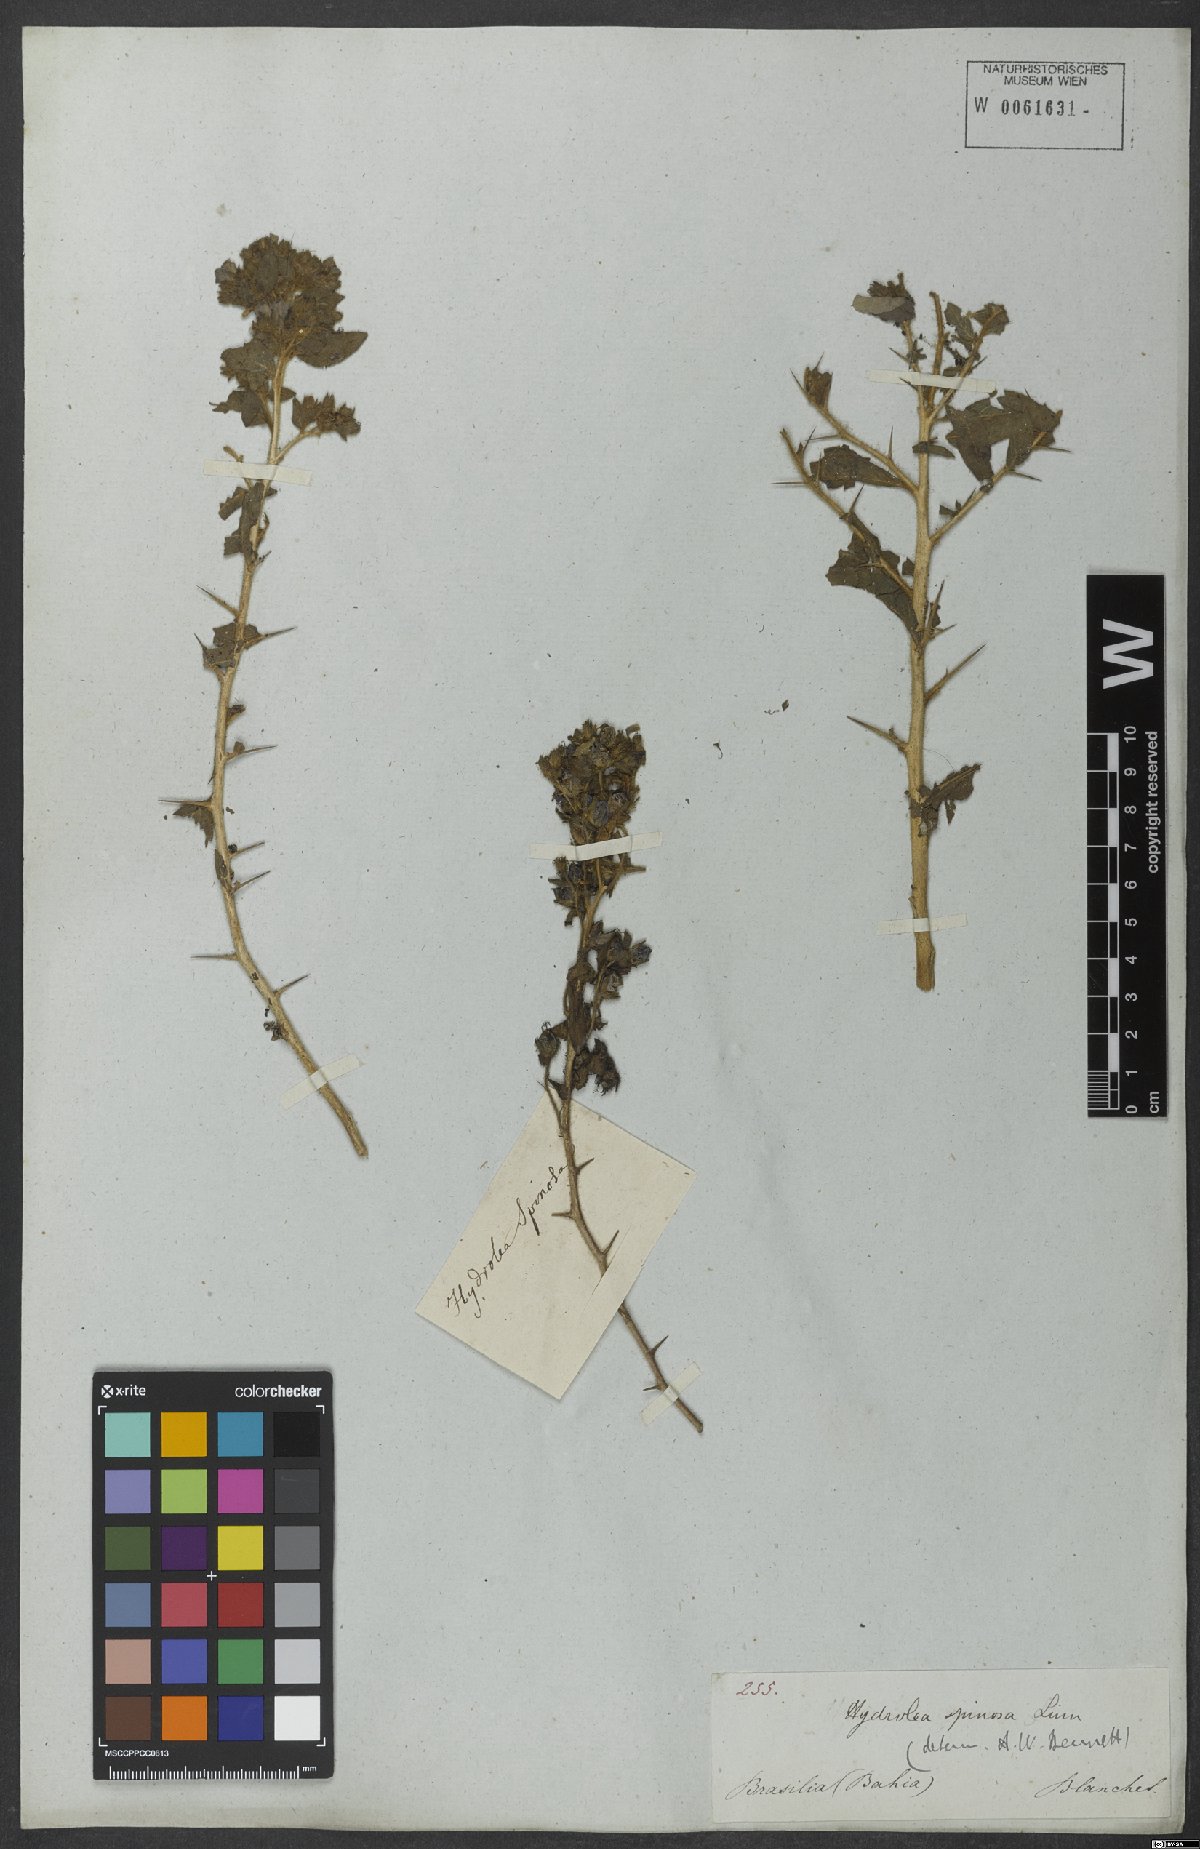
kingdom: Plantae
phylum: Tracheophyta
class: Magnoliopsida
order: Solanales
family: Hydroleaceae
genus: Hydrolea
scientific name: Hydrolea spinosa
